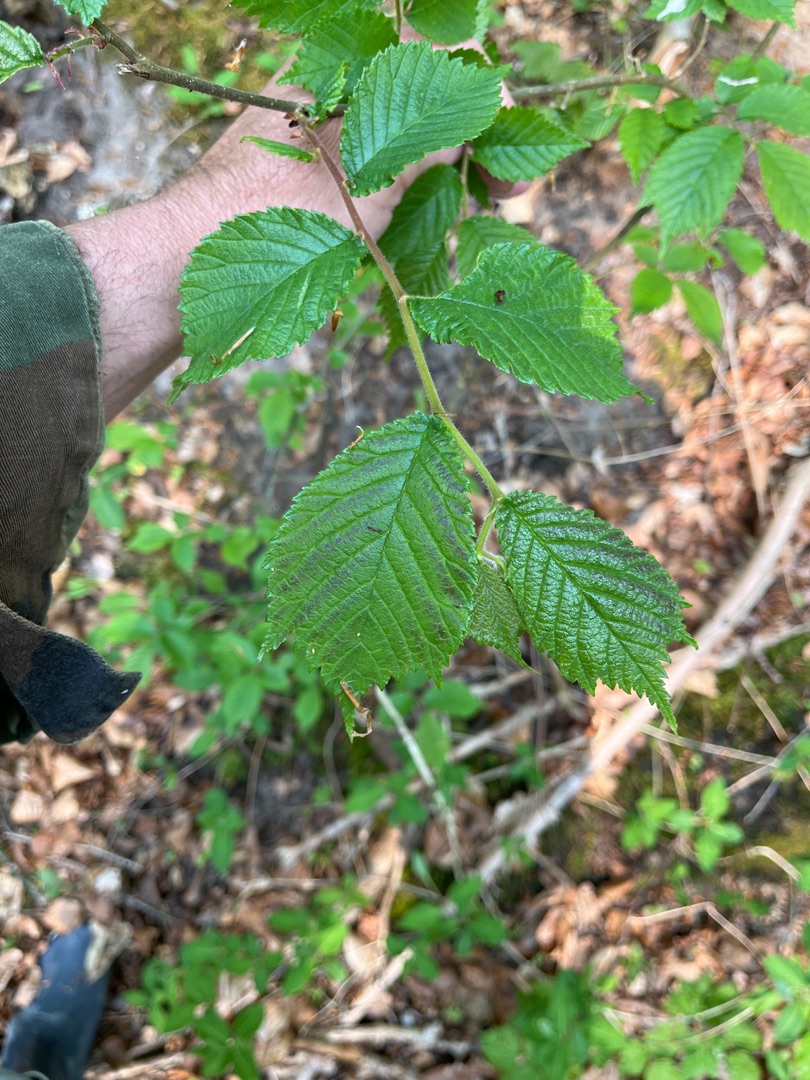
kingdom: Plantae
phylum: Tracheophyta
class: Magnoliopsida
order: Rosales
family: Ulmaceae
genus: Ulmus
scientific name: Ulmus glabra
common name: Skov-elm/storbladet elm
